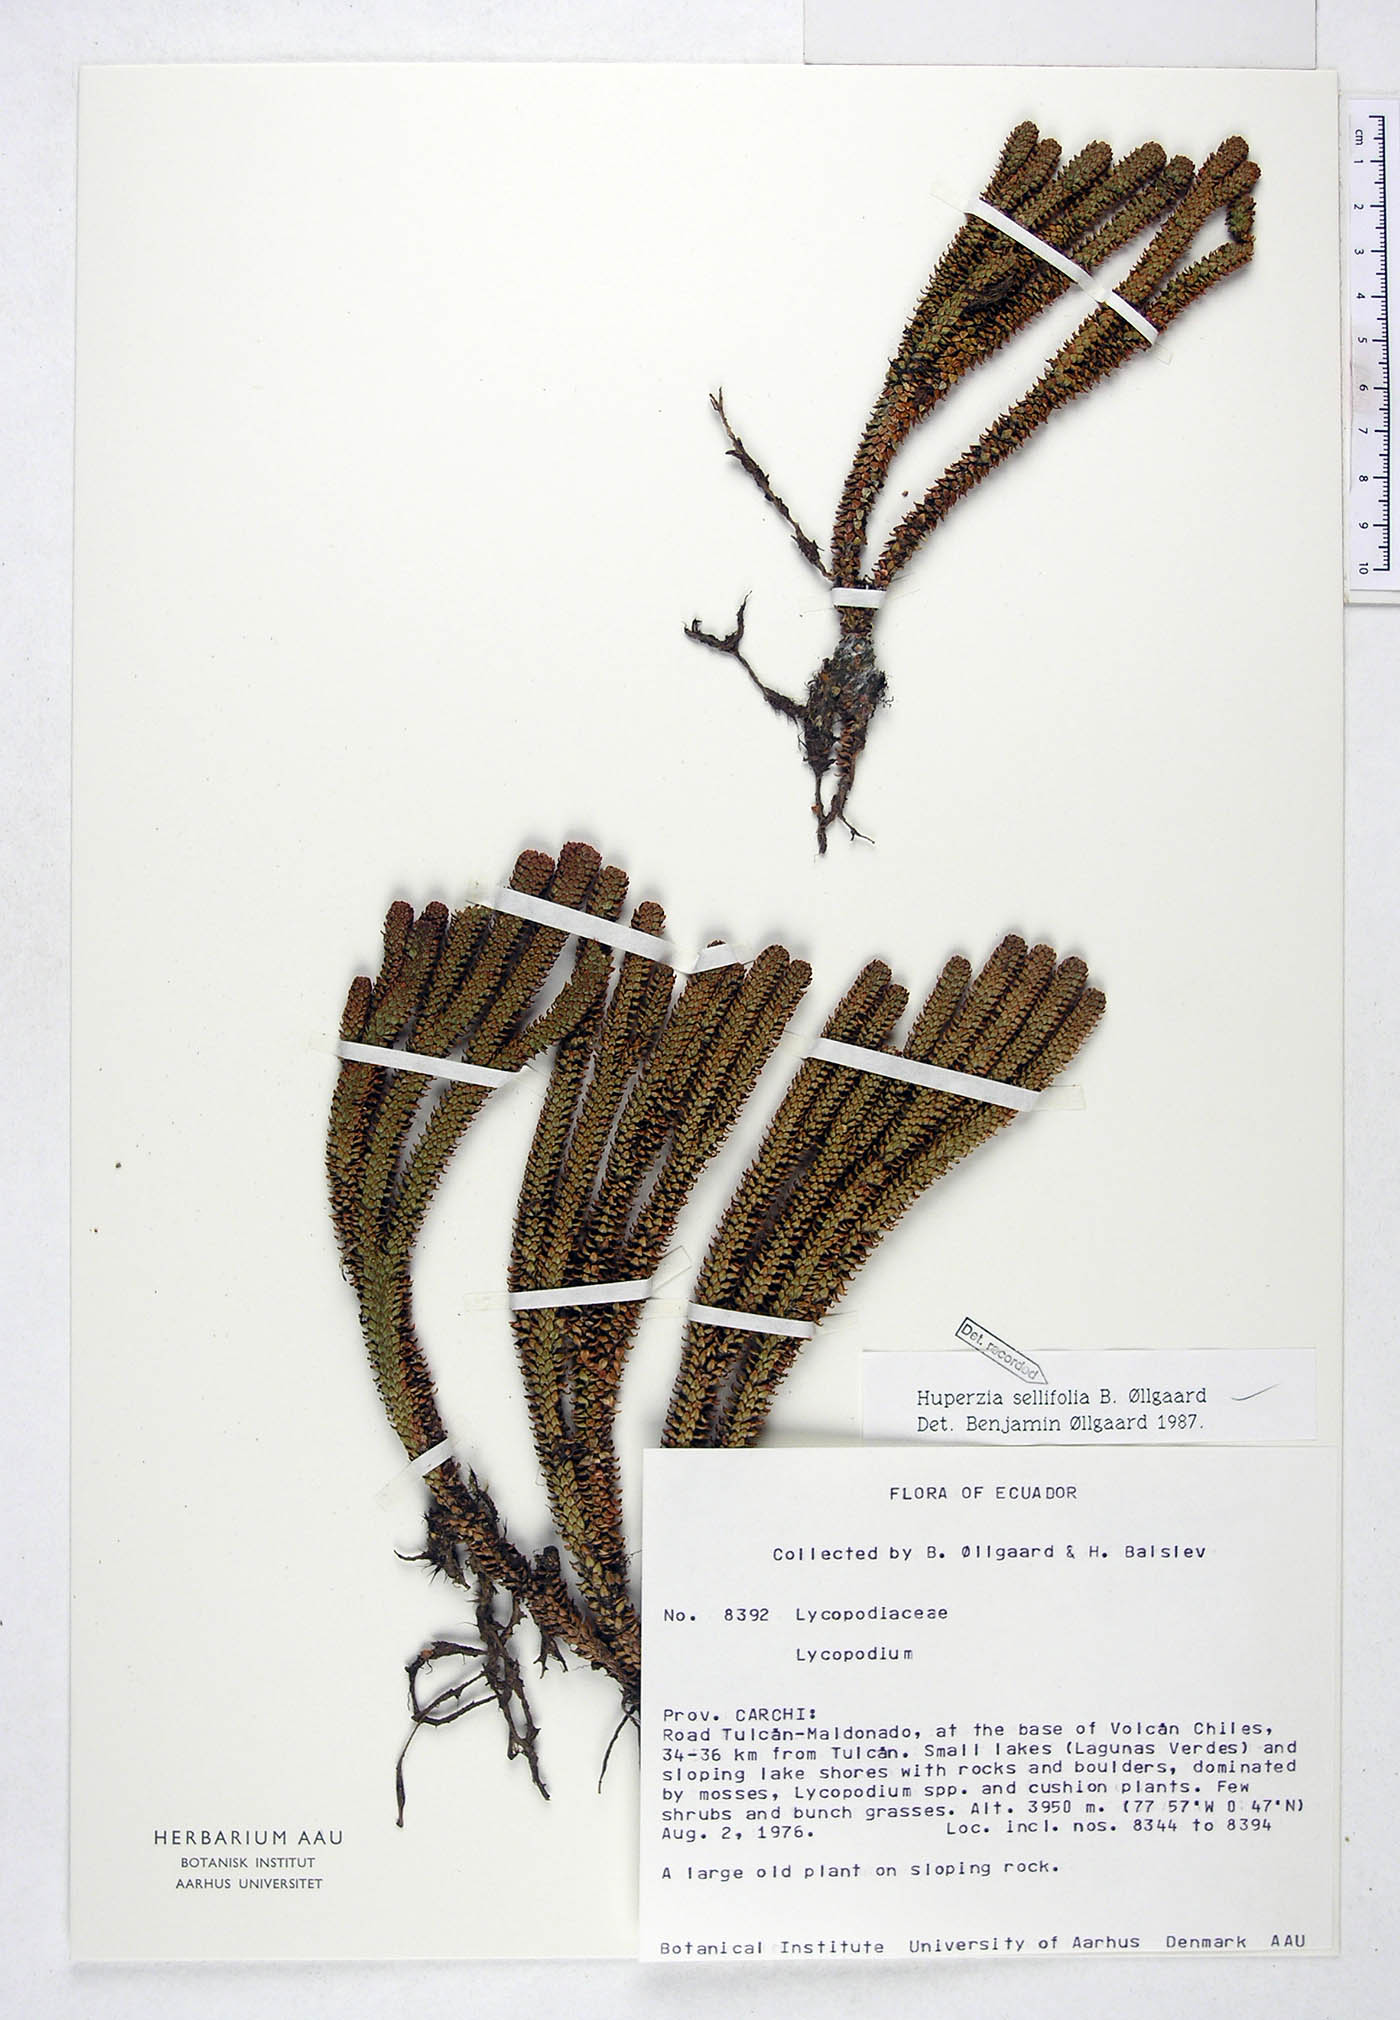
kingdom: Plantae
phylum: Tracheophyta
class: Lycopodiopsida
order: Lycopodiales
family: Lycopodiaceae
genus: Phlegmariurus
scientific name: Phlegmariurus sellifolius
